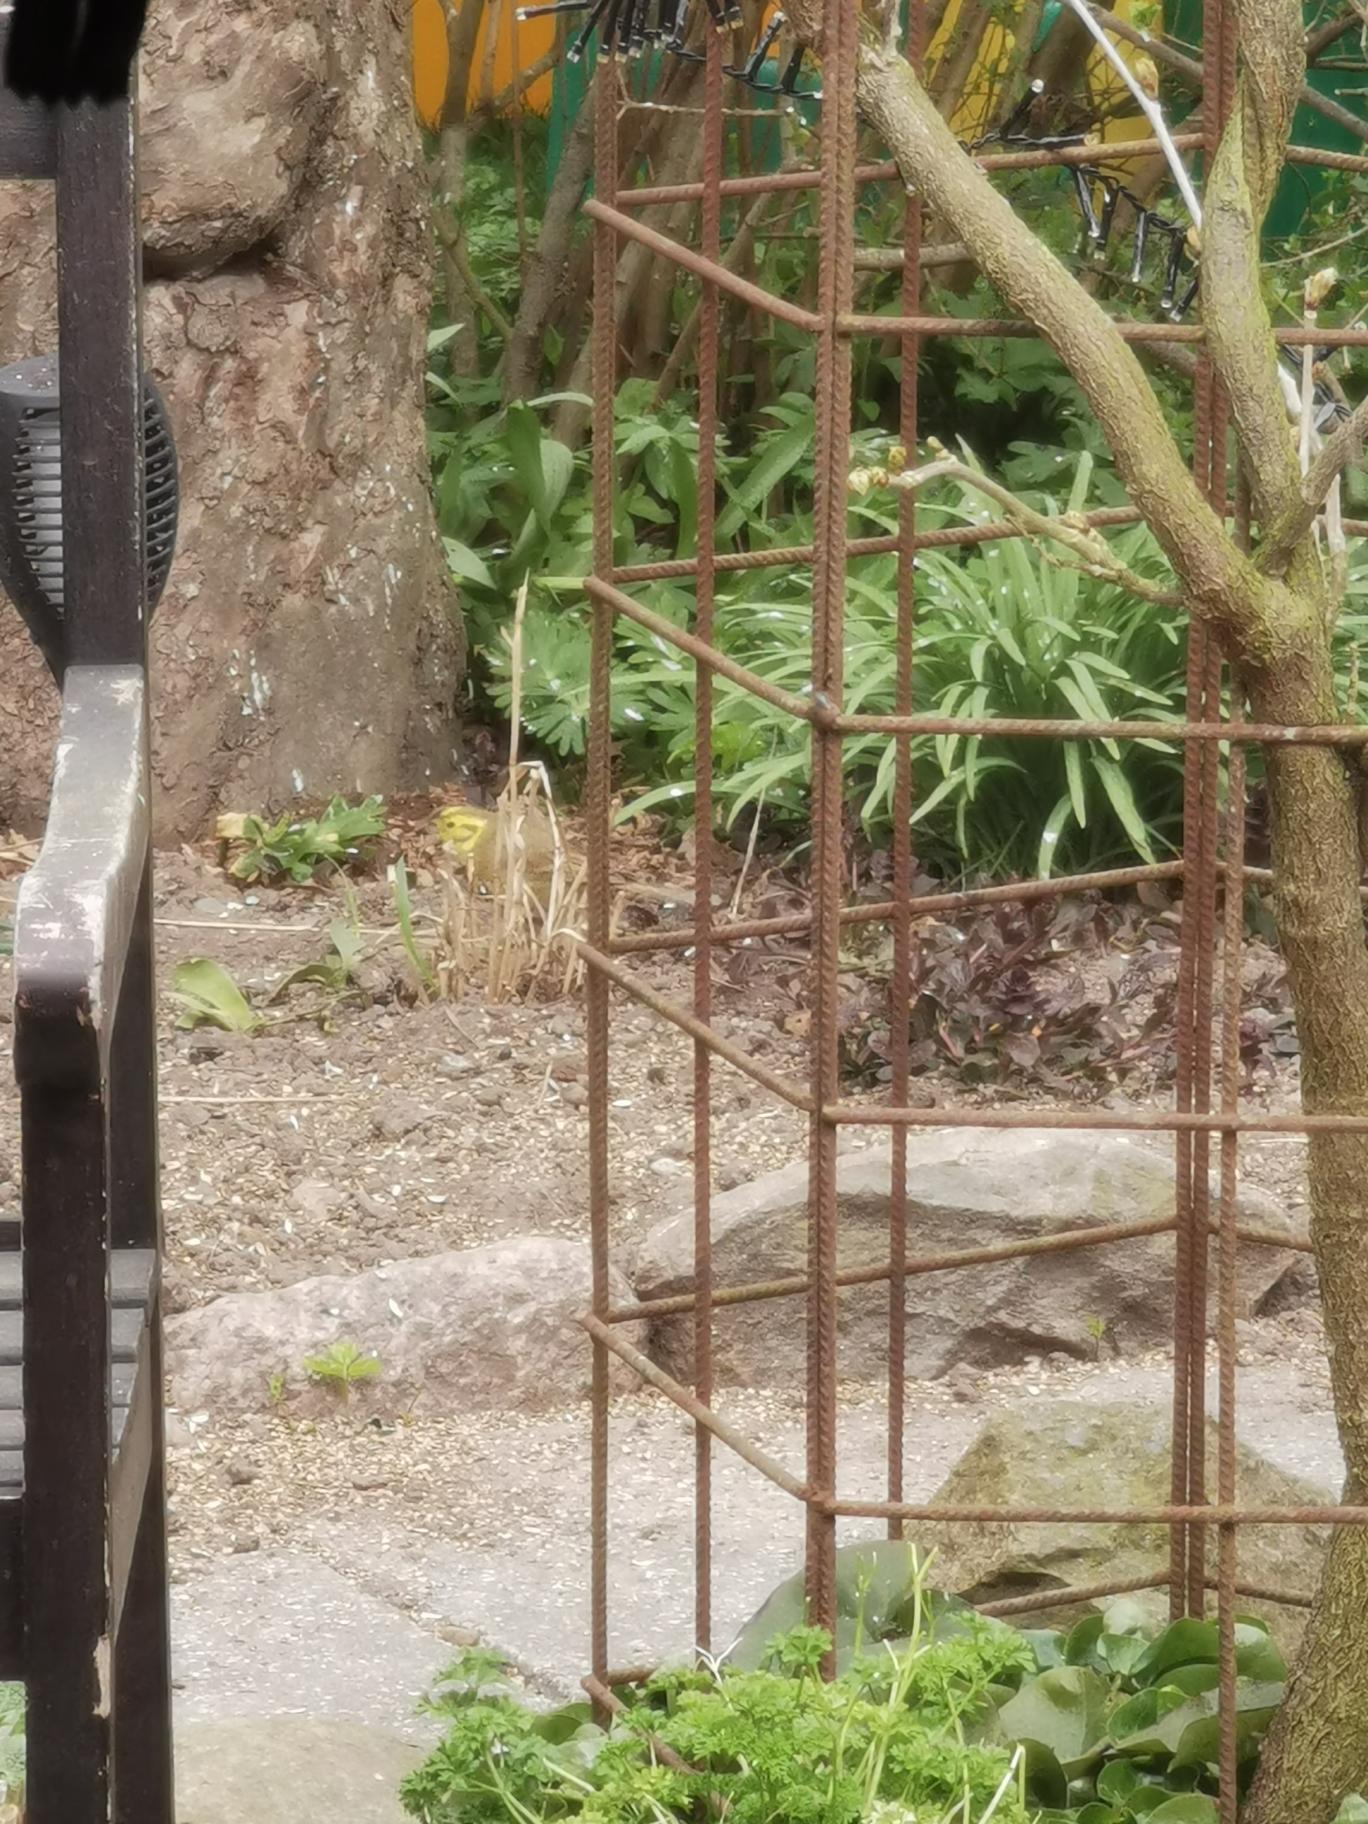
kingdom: Animalia
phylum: Chordata
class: Aves
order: Passeriformes
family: Emberizidae
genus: Emberiza
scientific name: Emberiza citrinella
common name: Gulspurv
